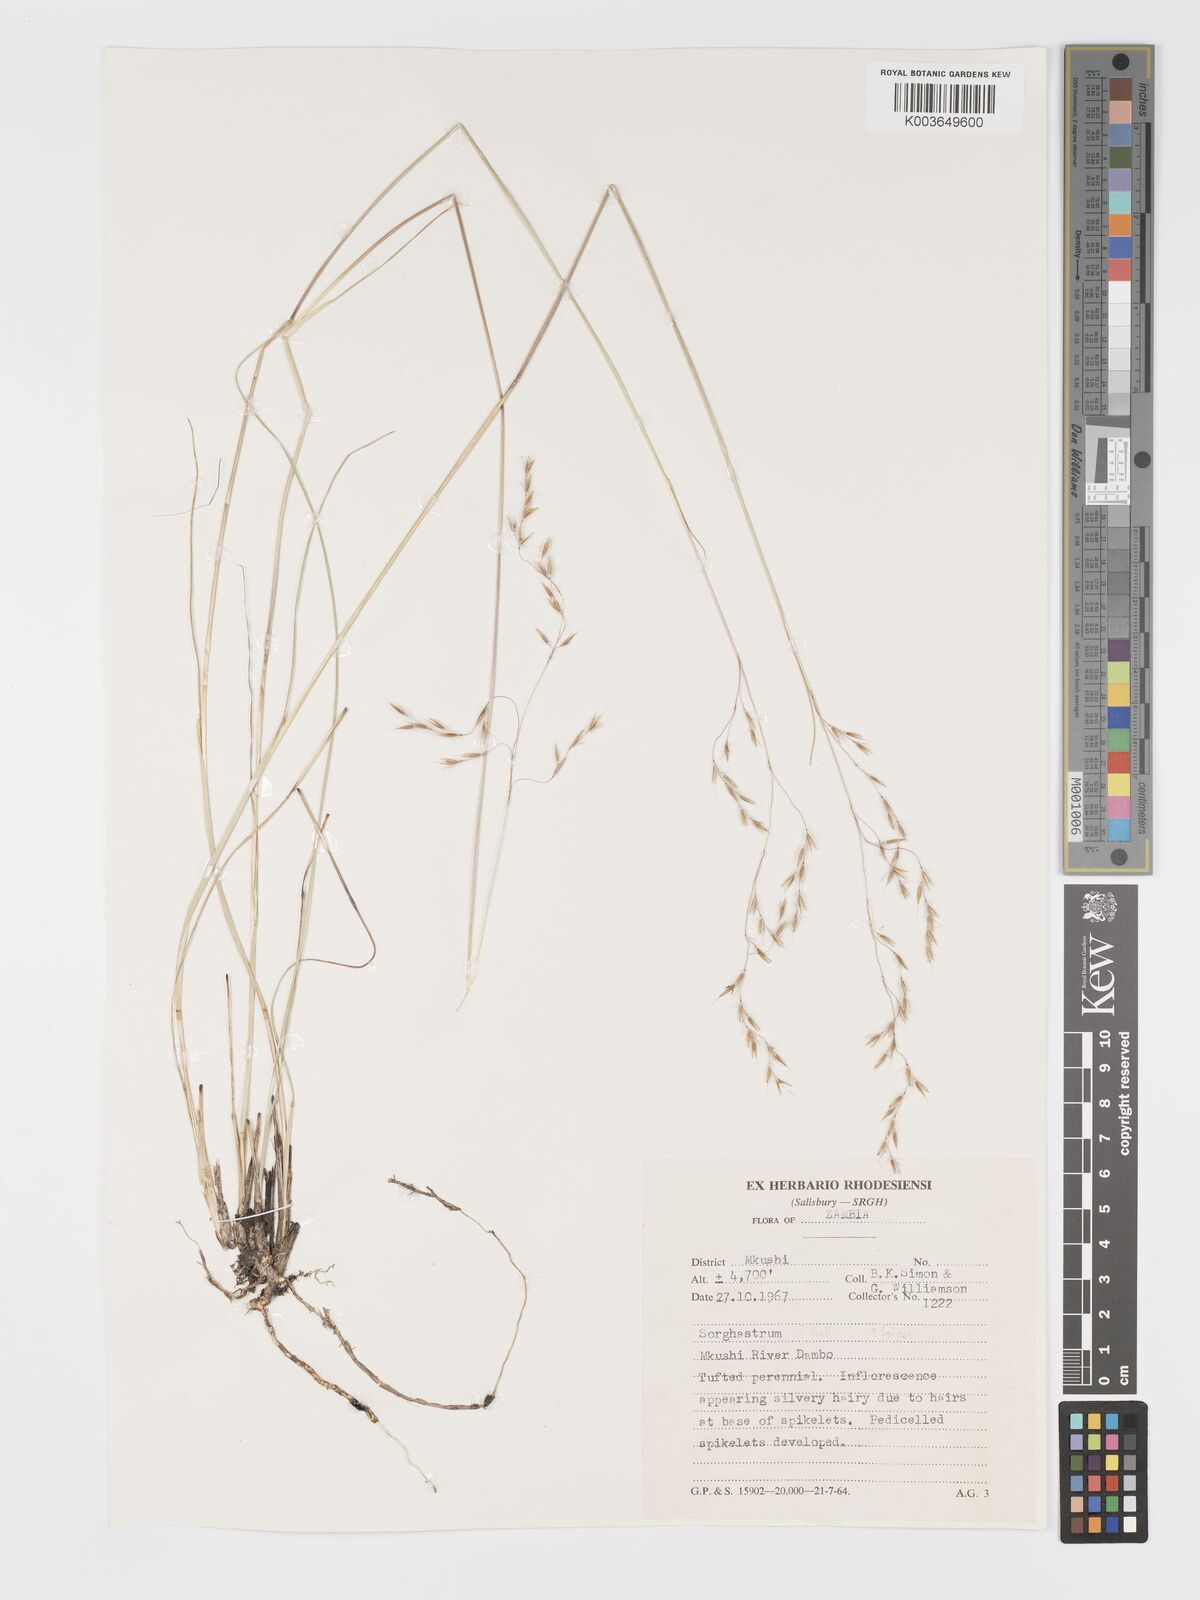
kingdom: Plantae
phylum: Tracheophyta
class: Liliopsida
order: Poales
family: Poaceae
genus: Sorghastrum
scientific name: Sorghastrum pogonostachyum
